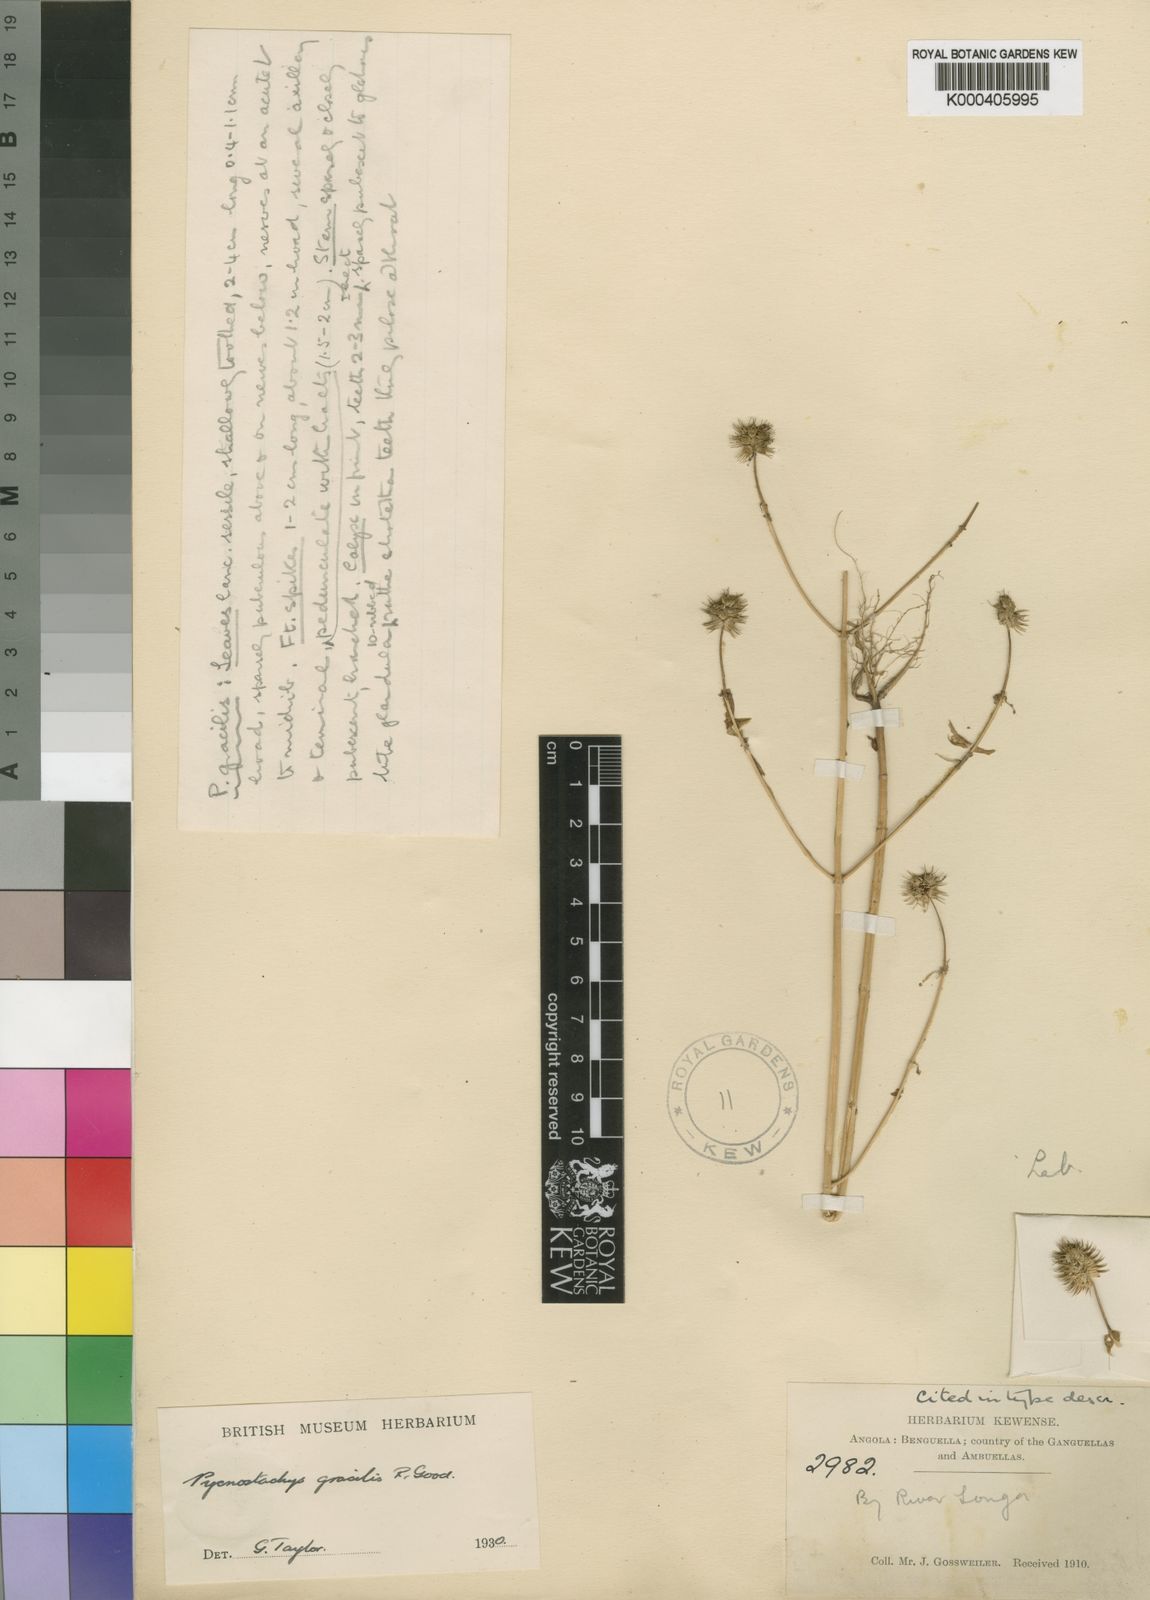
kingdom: Plantae
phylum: Tracheophyta
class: Magnoliopsida
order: Lamiales
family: Lamiaceae
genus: Coleus
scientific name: Coleus gossweileri
